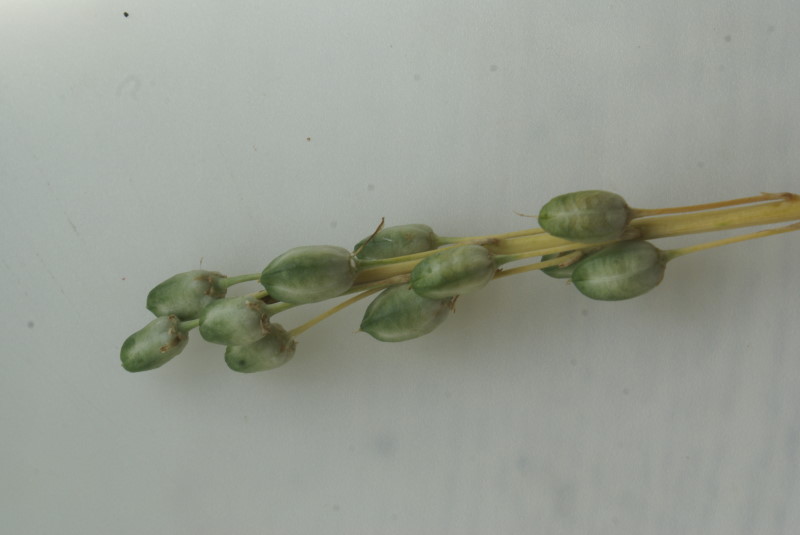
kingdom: Plantae
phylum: Tracheophyta
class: Liliopsida
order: Asparagales
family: Asparagaceae
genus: Ornithogalum
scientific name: Ornithogalum
